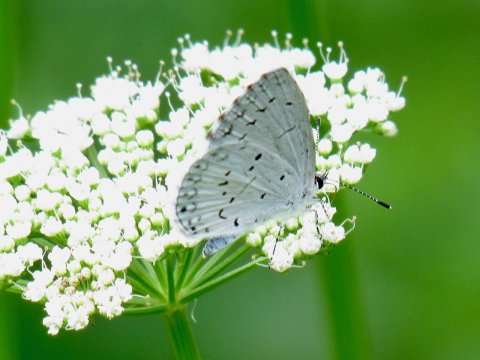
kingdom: Animalia
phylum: Arthropoda
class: Insecta
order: Lepidoptera
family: Lycaenidae
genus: Cyaniris
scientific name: Cyaniris neglecta
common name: Summer Azure
